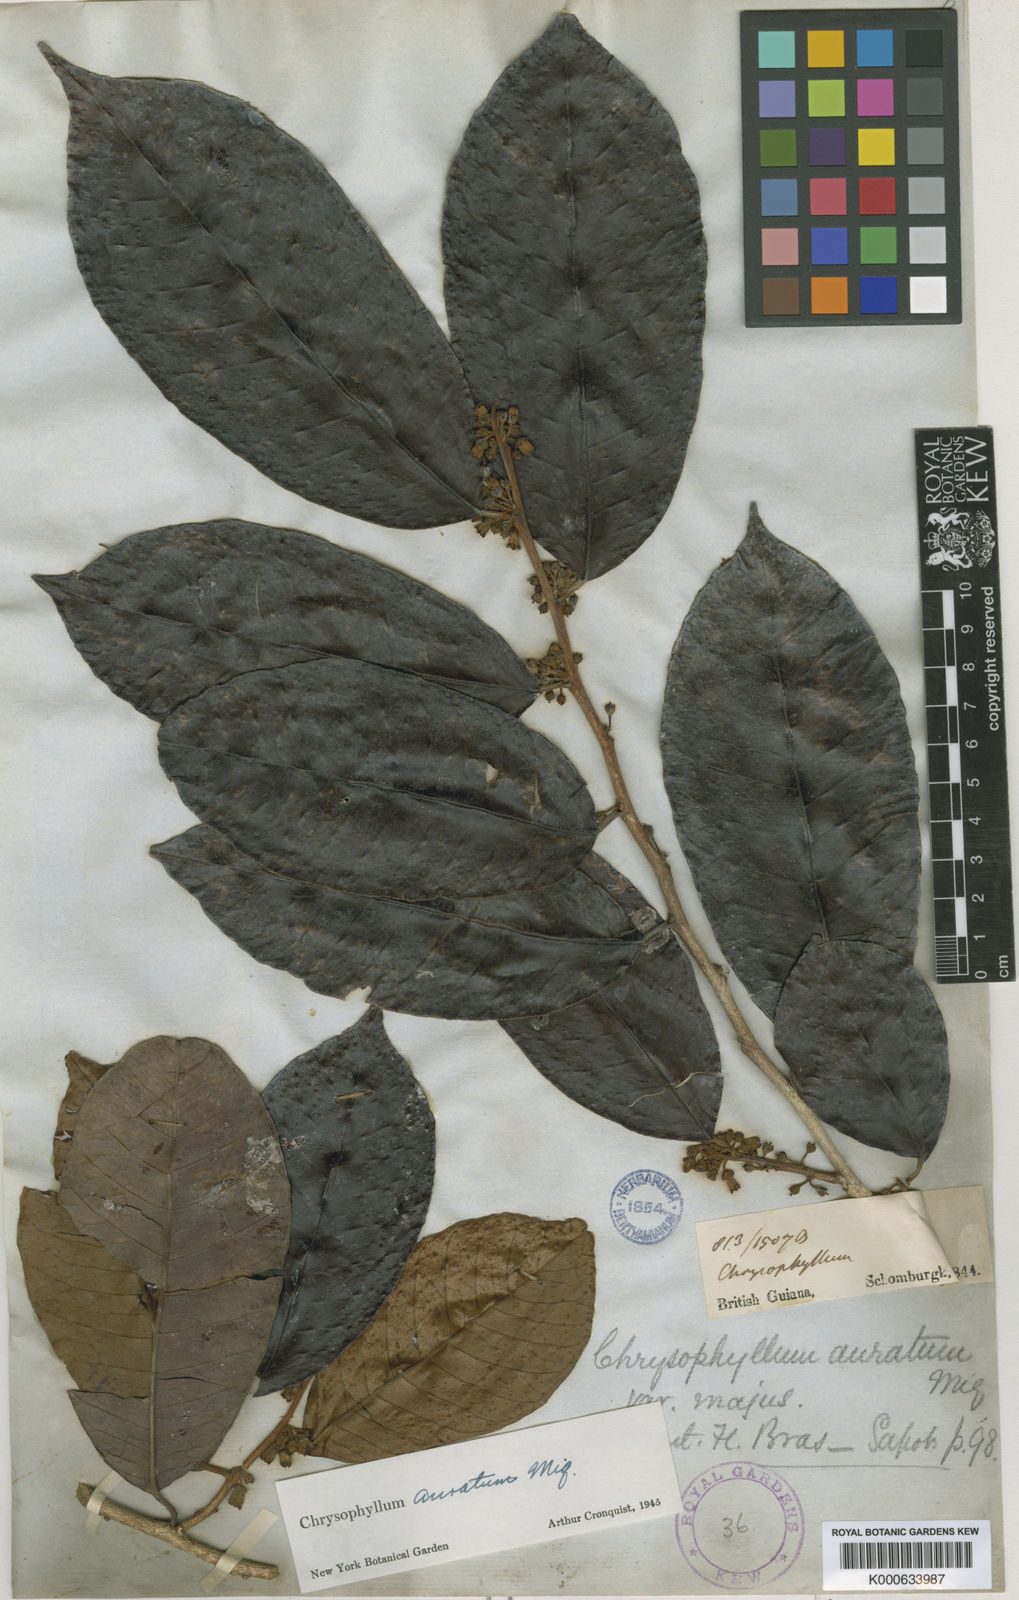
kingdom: Plantae
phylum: Tracheophyta
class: Magnoliopsida
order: Ericales
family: Sapotaceae
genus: Chrysophyllum
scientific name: Chrysophyllum argenteum
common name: Smooth star apple
